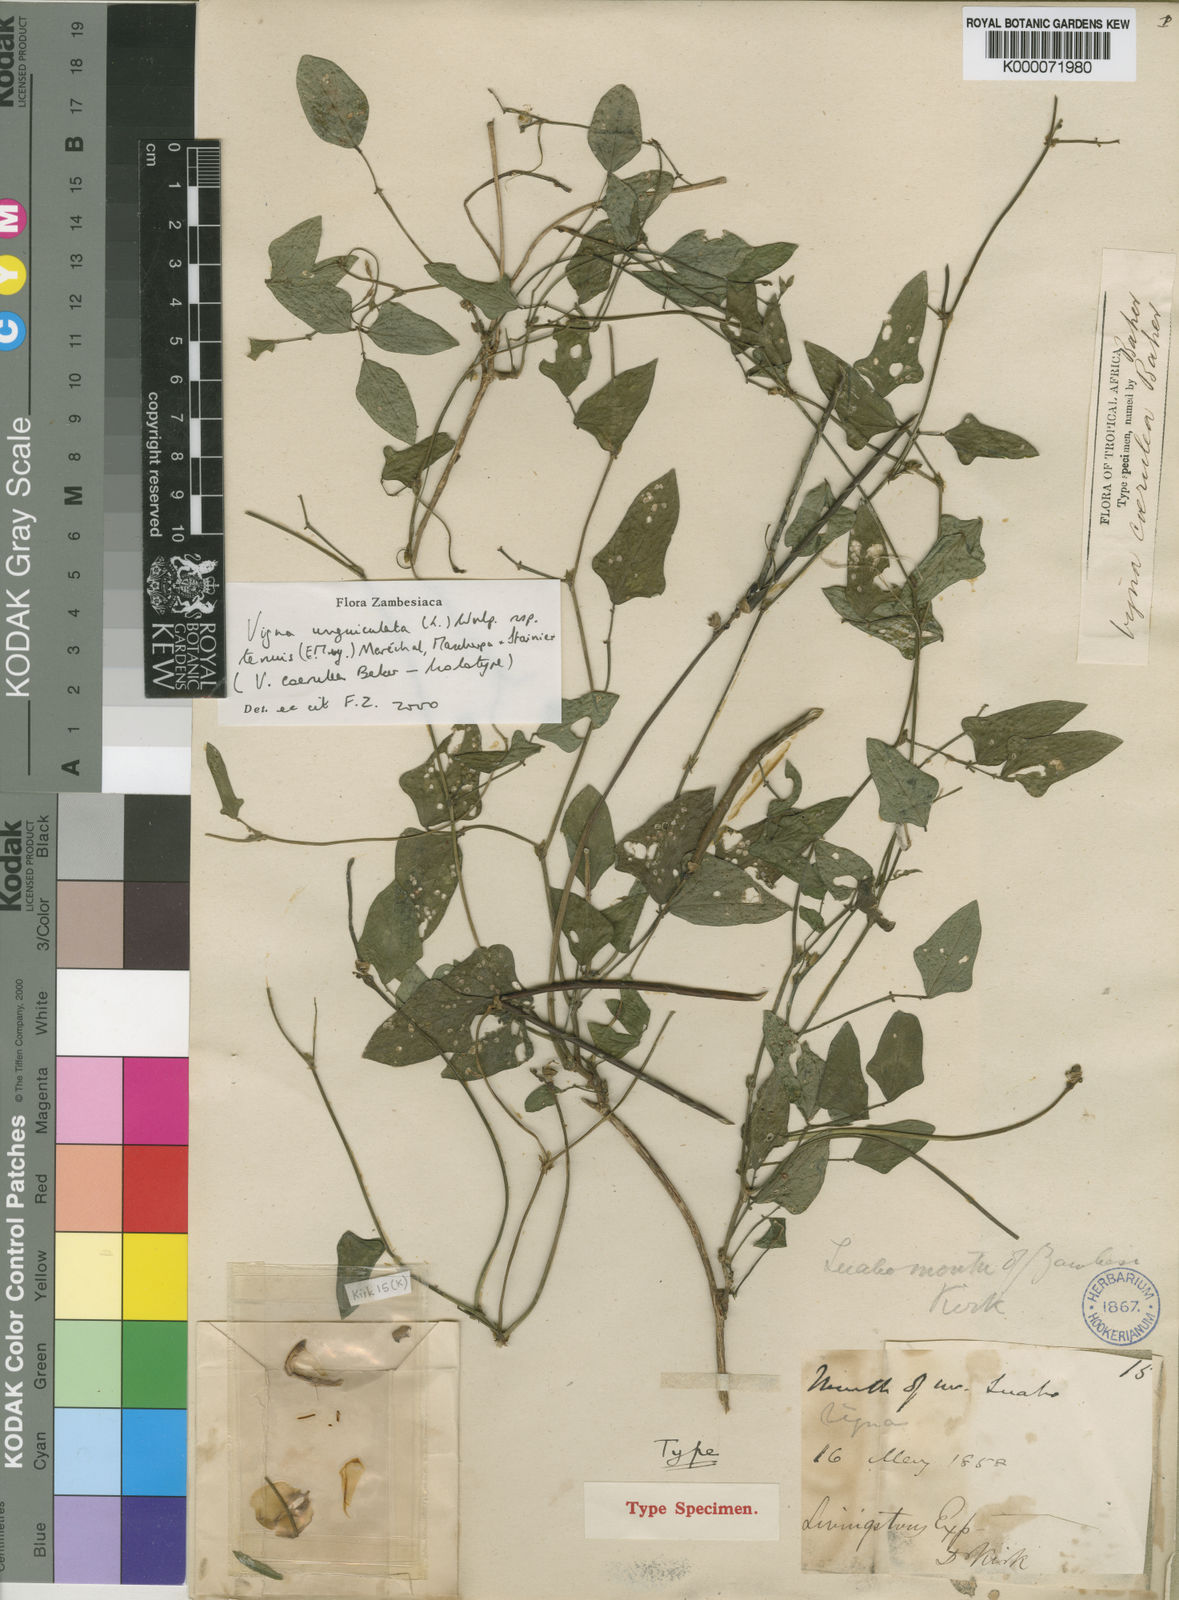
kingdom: Plantae
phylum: Tracheophyta
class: Magnoliopsida
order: Fabales
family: Fabaceae
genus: Vigna
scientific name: Vigna unguiculata
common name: Cowpea
